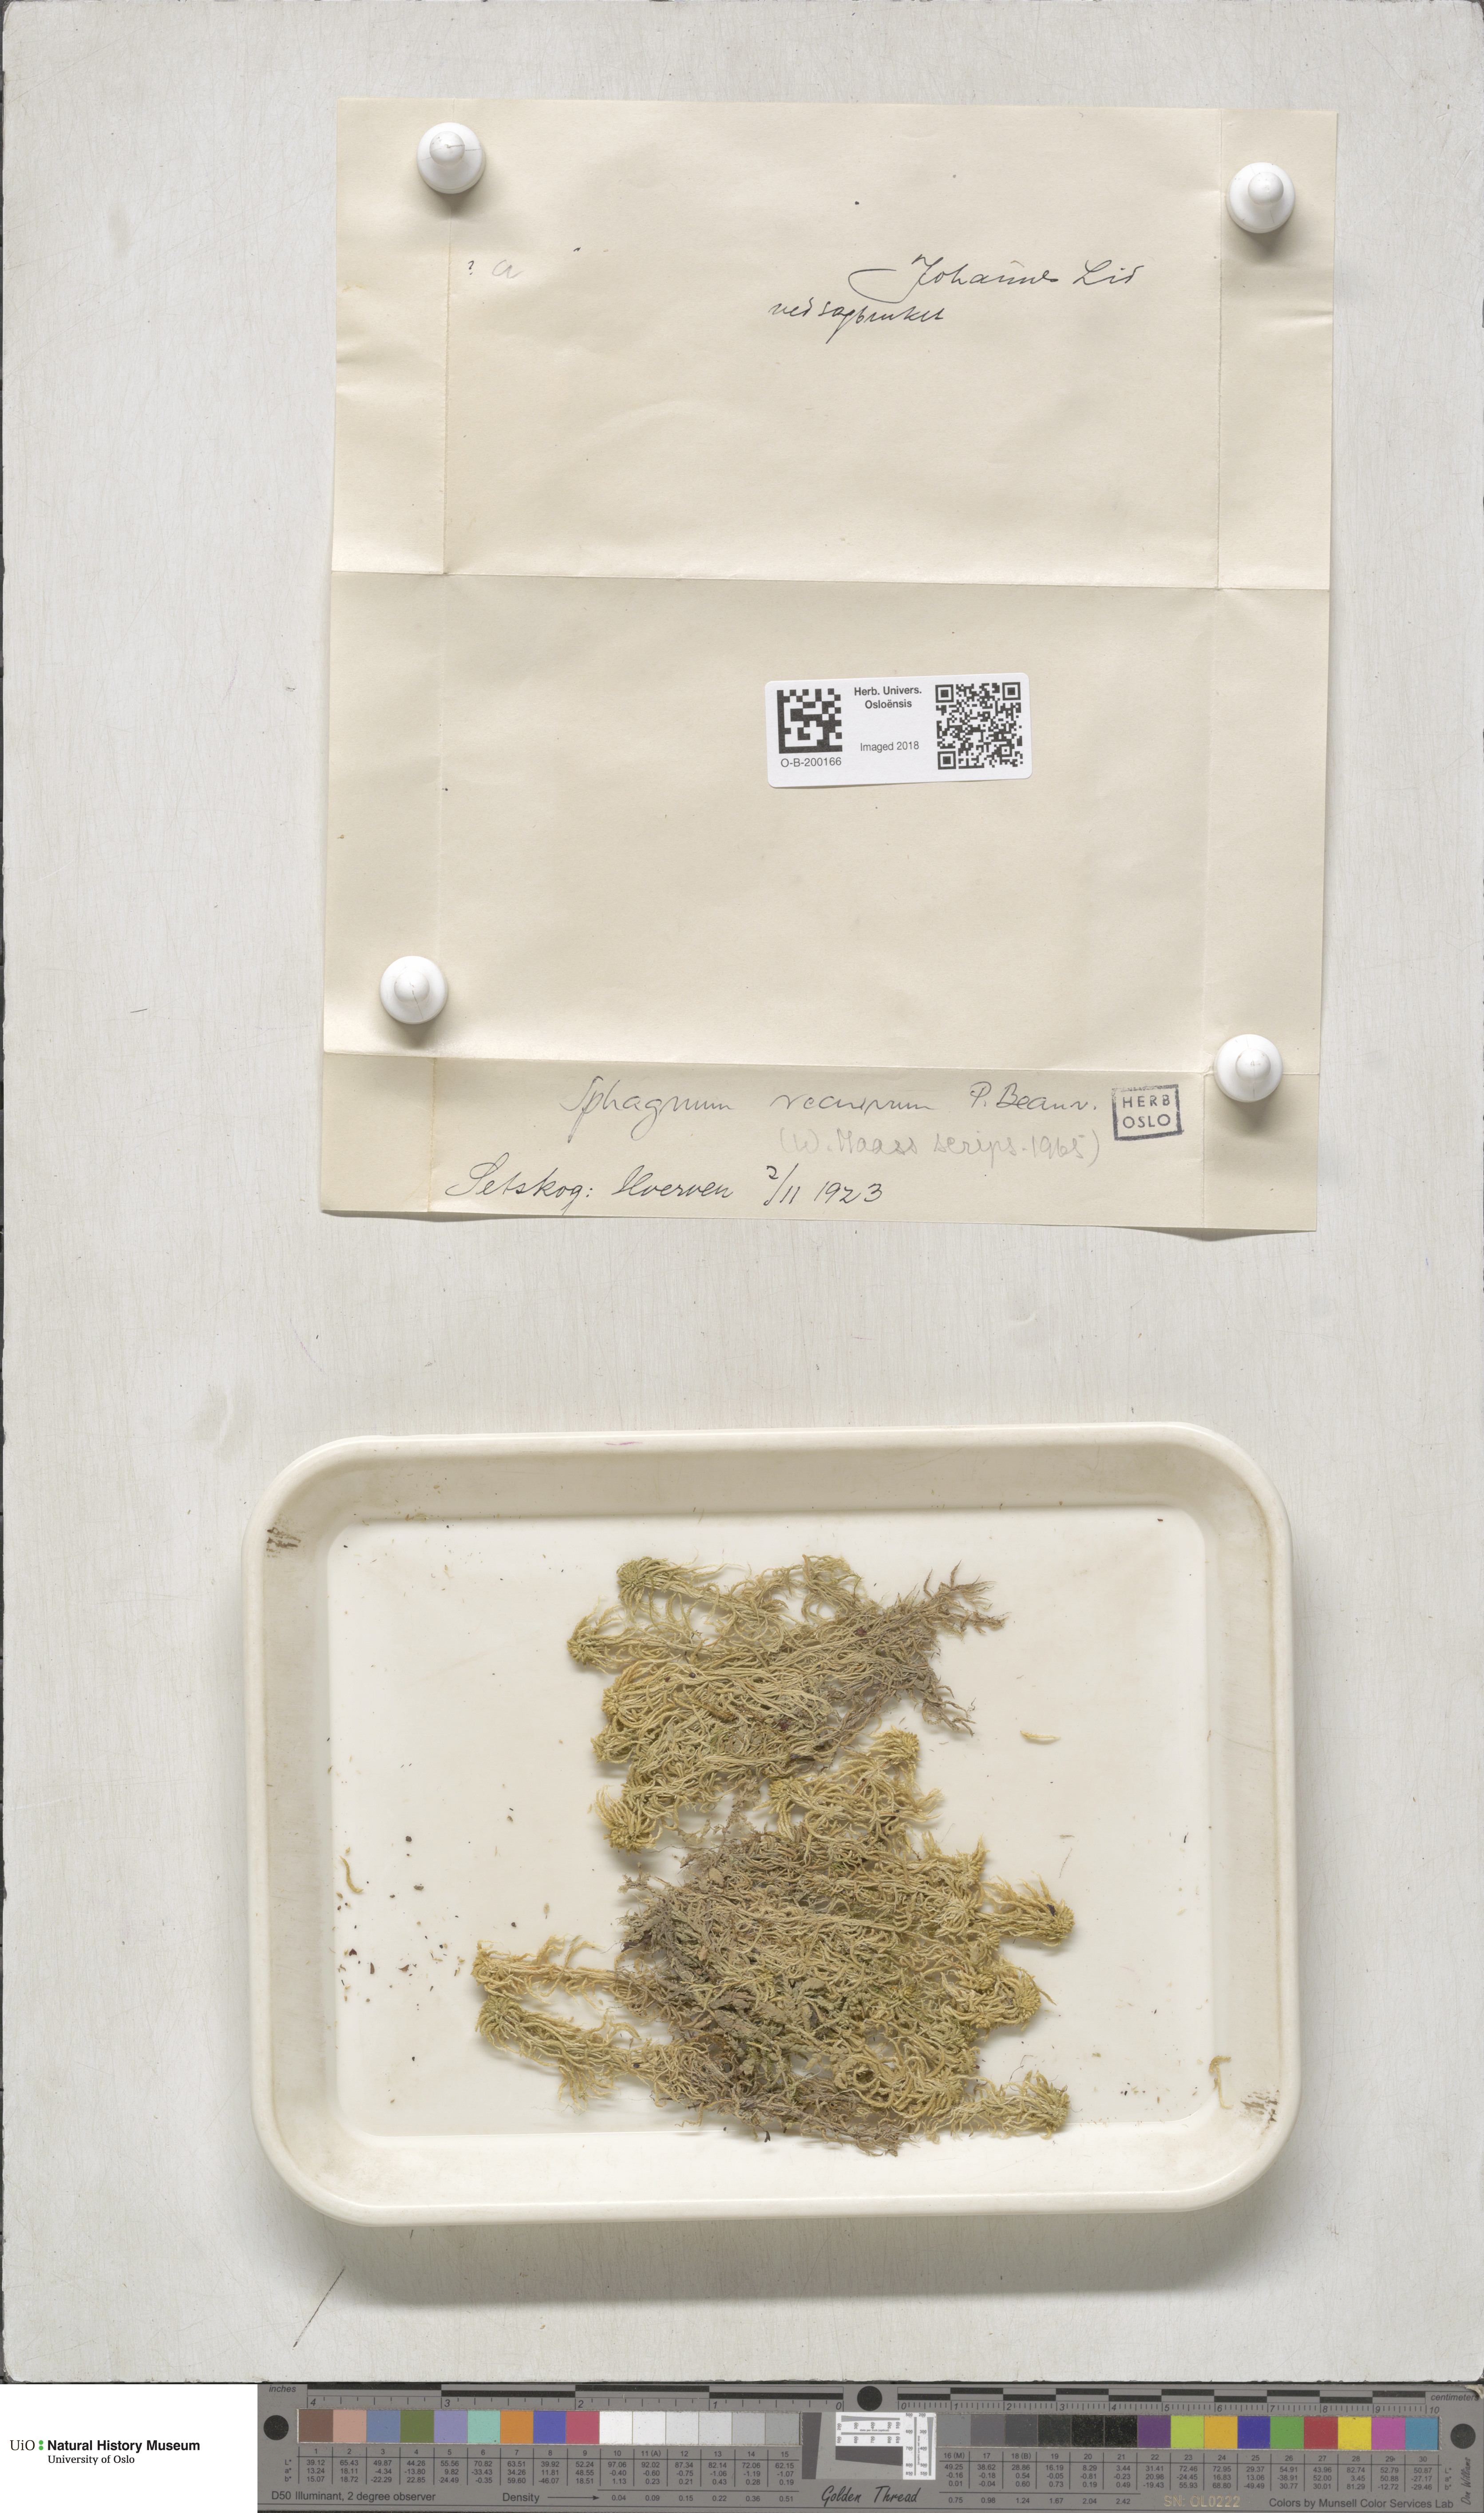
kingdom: Plantae
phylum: Bryophyta
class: Sphagnopsida
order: Sphagnales
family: Sphagnaceae
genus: Sphagnum
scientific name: Sphagnum fallax
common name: Flat-top peat moss
